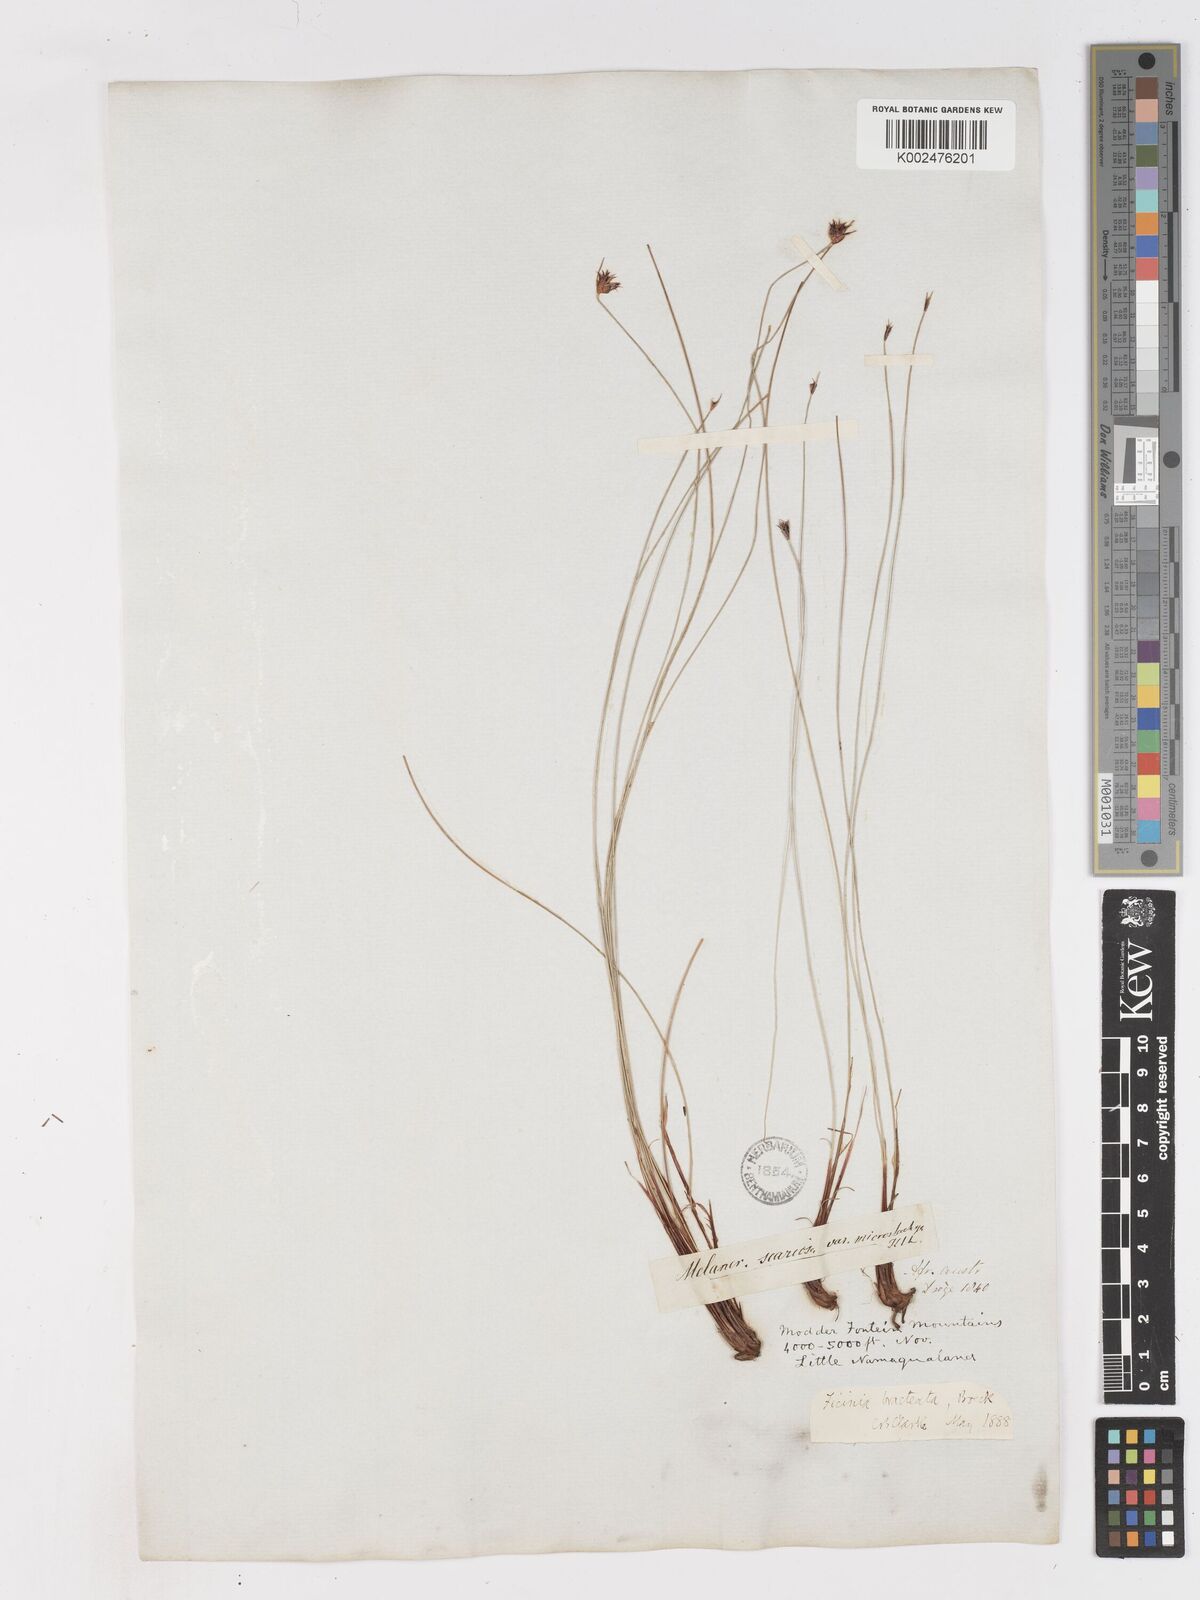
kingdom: Plantae
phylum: Tracheophyta
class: Liliopsida
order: Poales
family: Cyperaceae
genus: Ficinia
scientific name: Ficinia nigrescens
